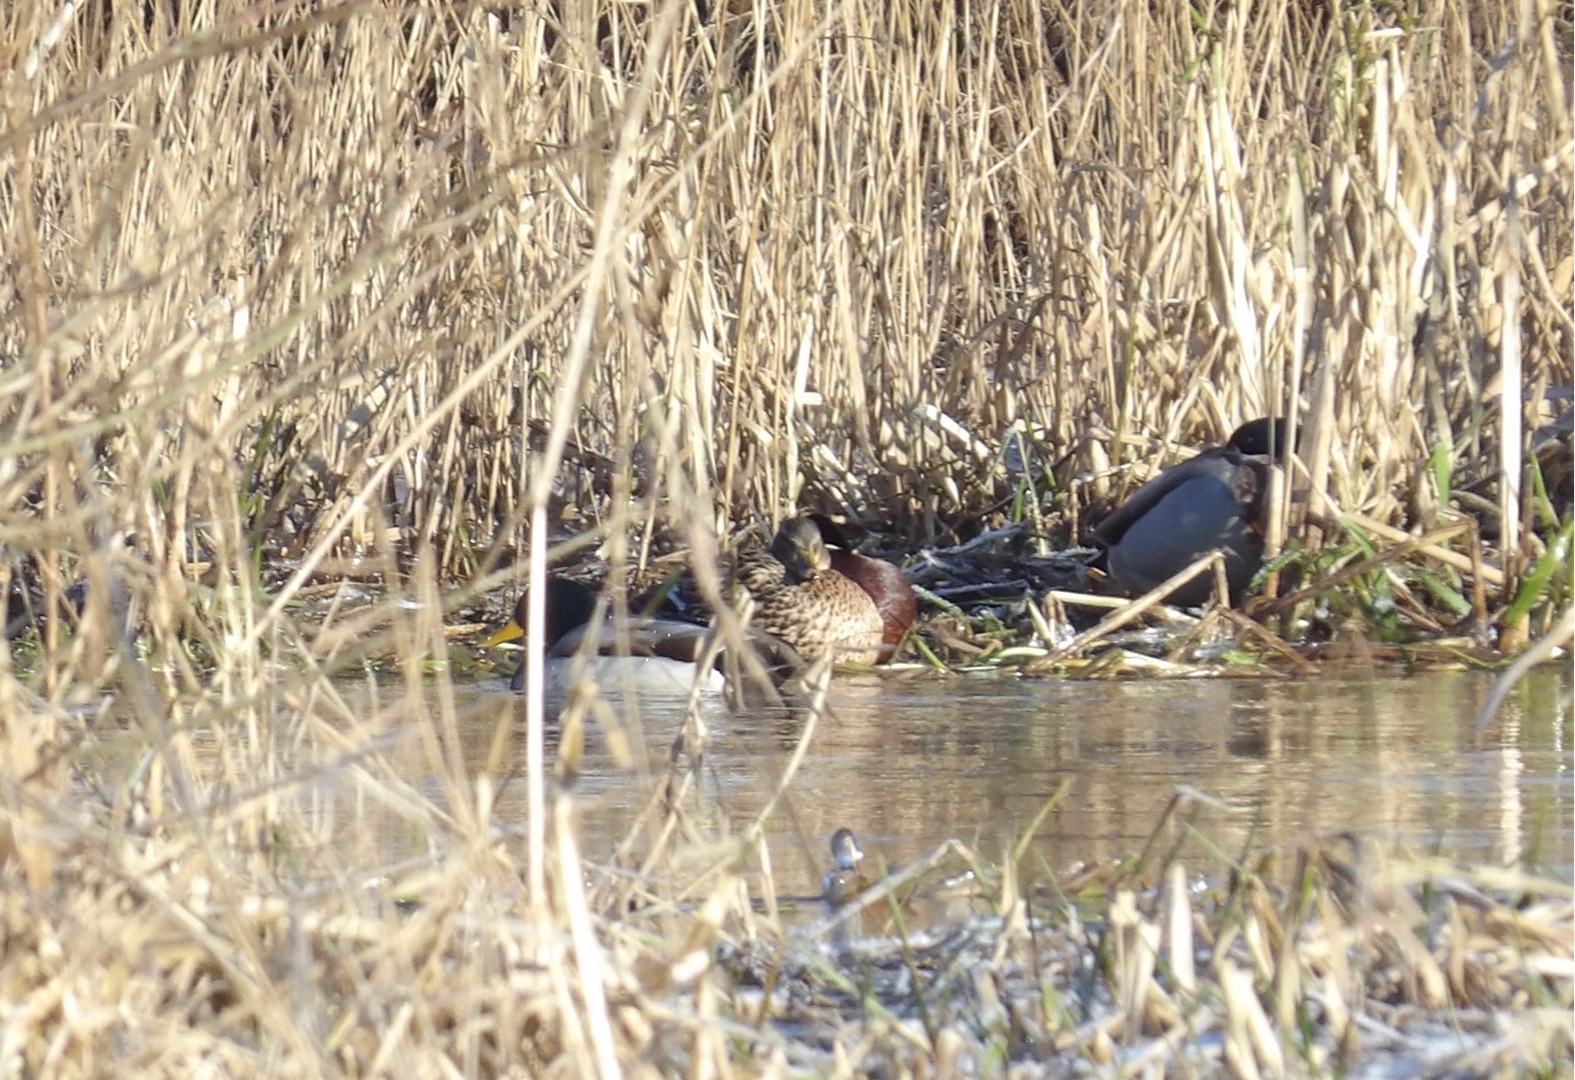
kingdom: Animalia
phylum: Chordata
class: Aves
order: Anseriformes
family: Anatidae
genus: Anas
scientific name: Anas platyrhynchos
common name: Gråand
